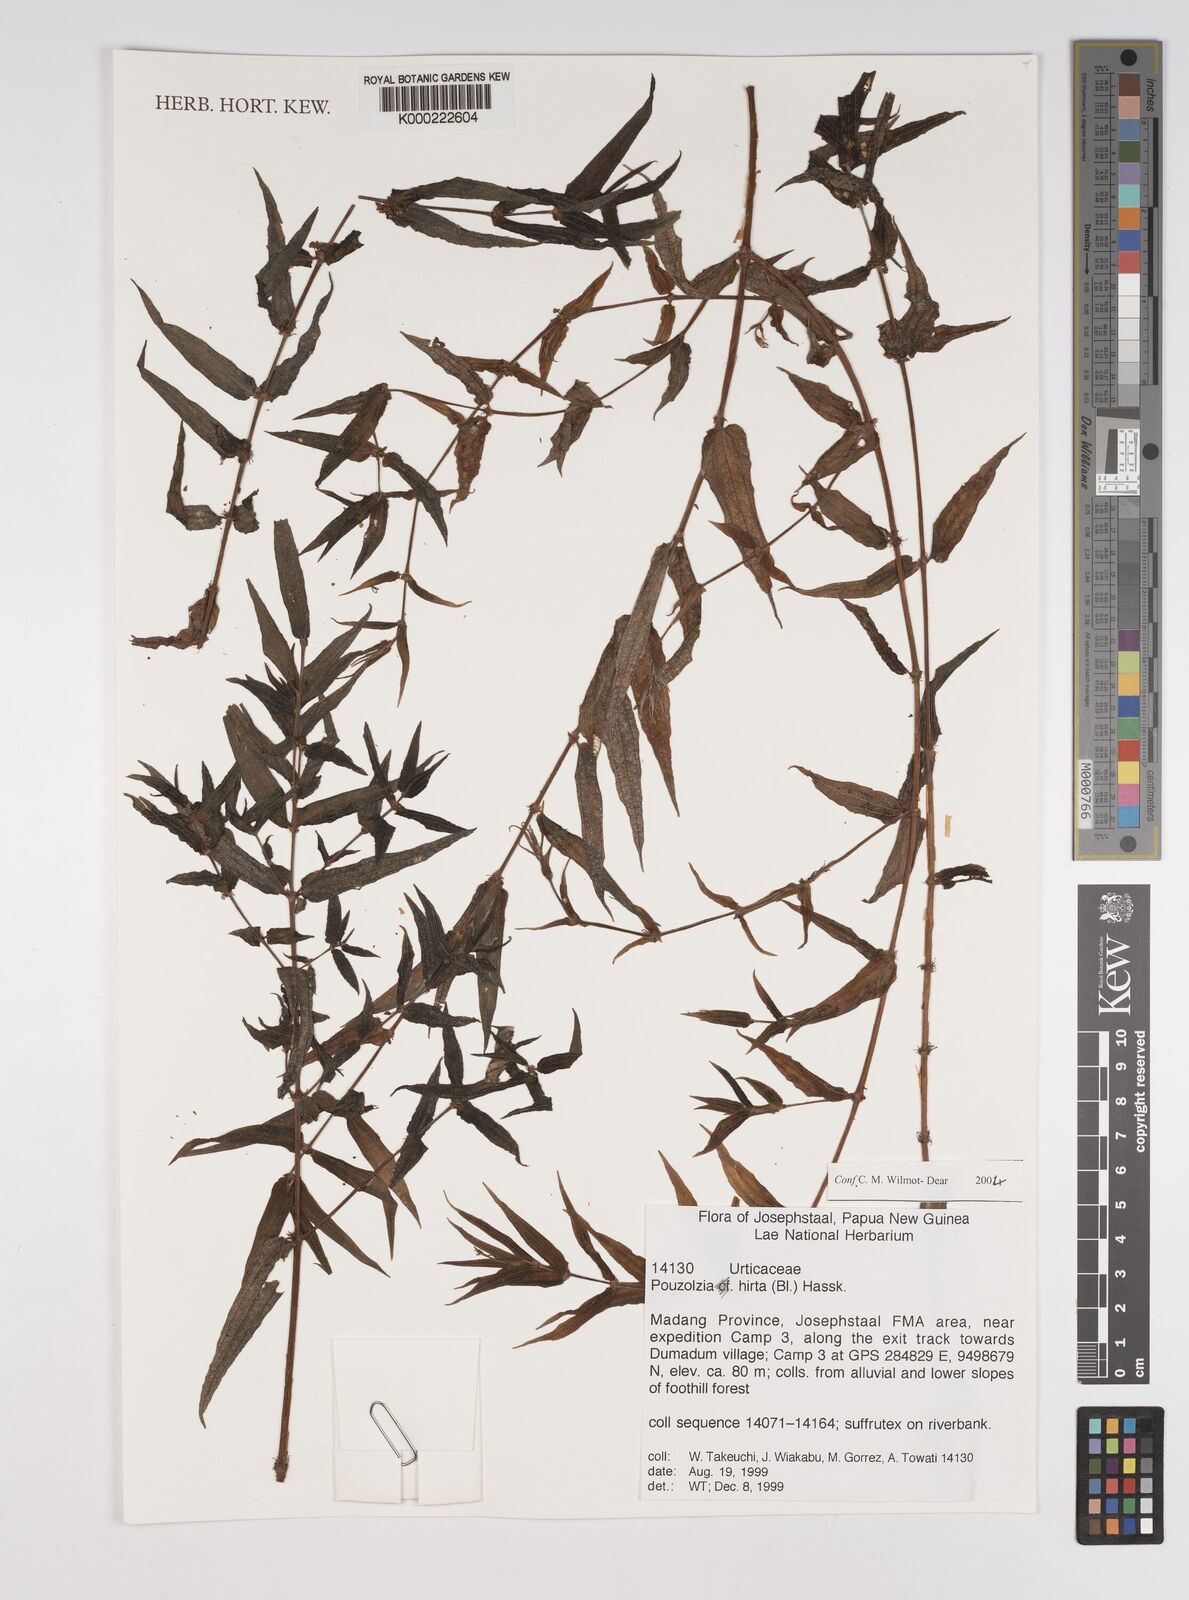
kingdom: Plantae
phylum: Tracheophyta
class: Magnoliopsida
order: Rosales
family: Urticaceae
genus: Gonostegia
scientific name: Gonostegia triandra
